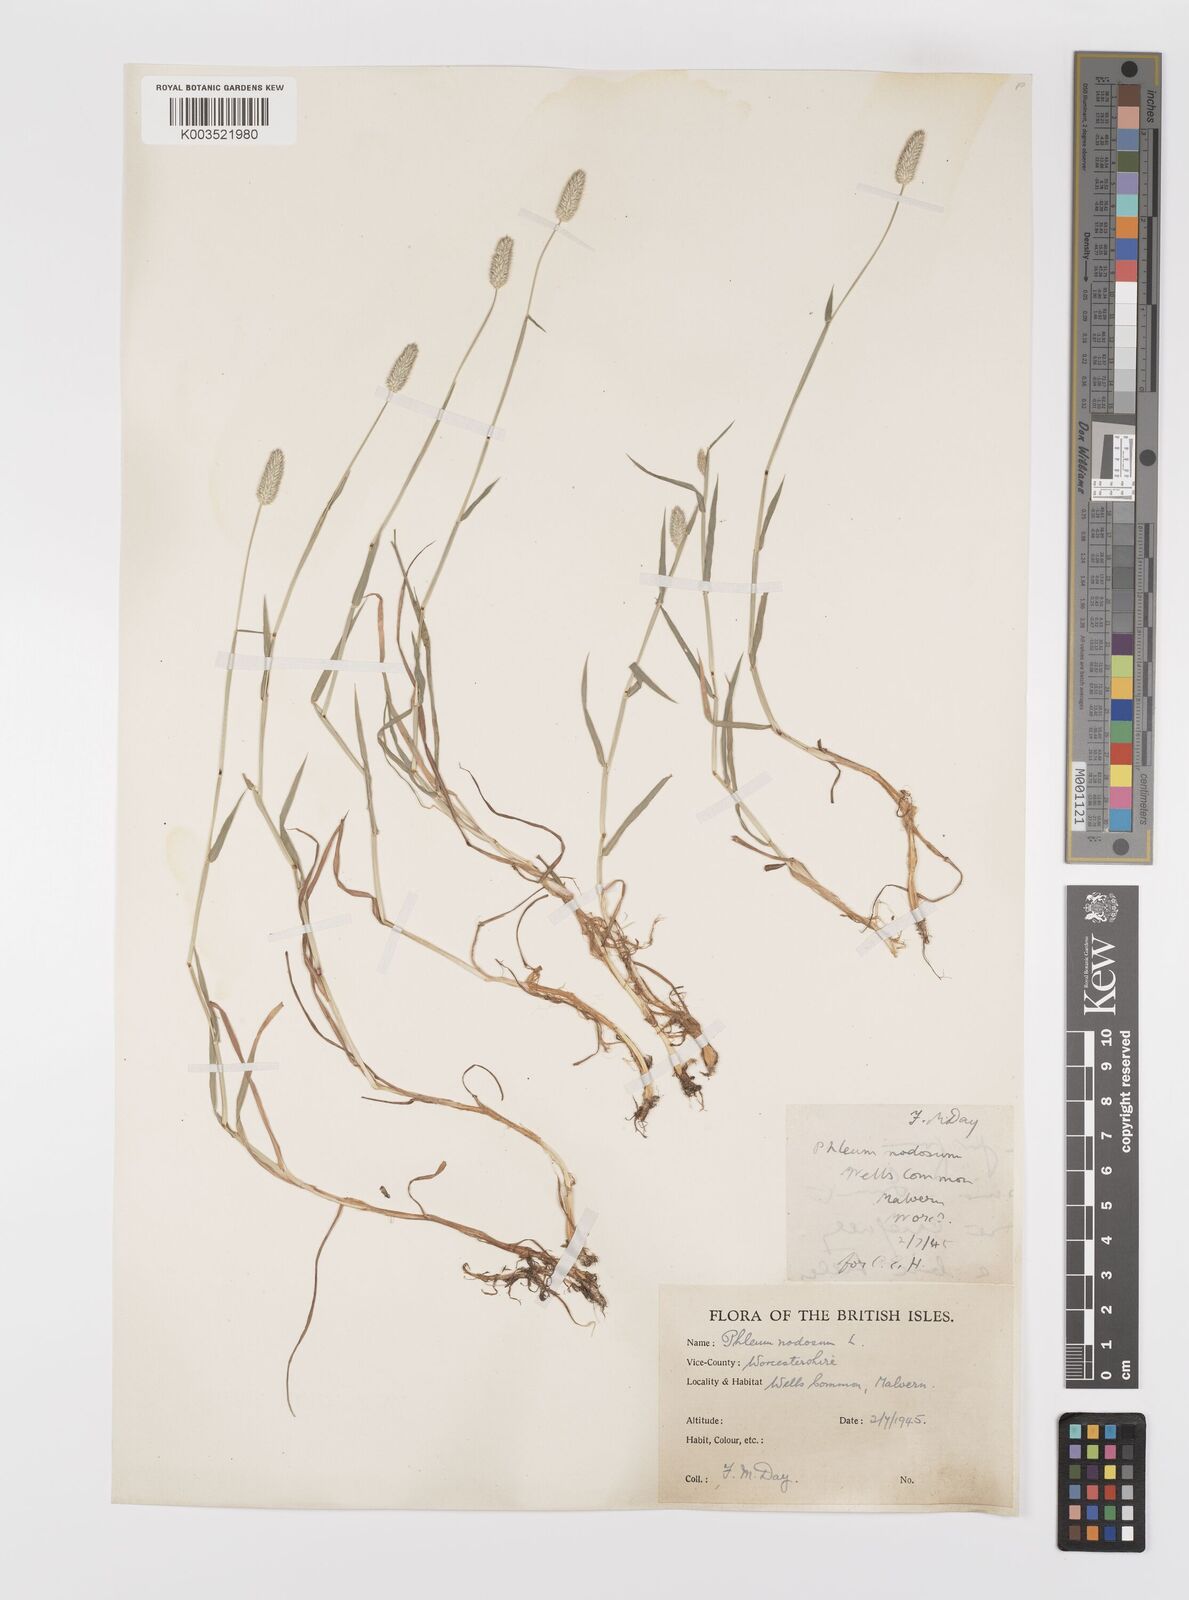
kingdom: Plantae
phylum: Tracheophyta
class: Liliopsida
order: Poales
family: Poaceae
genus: Phleum
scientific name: Phleum bertolonii
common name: Smaller cat's-tail
